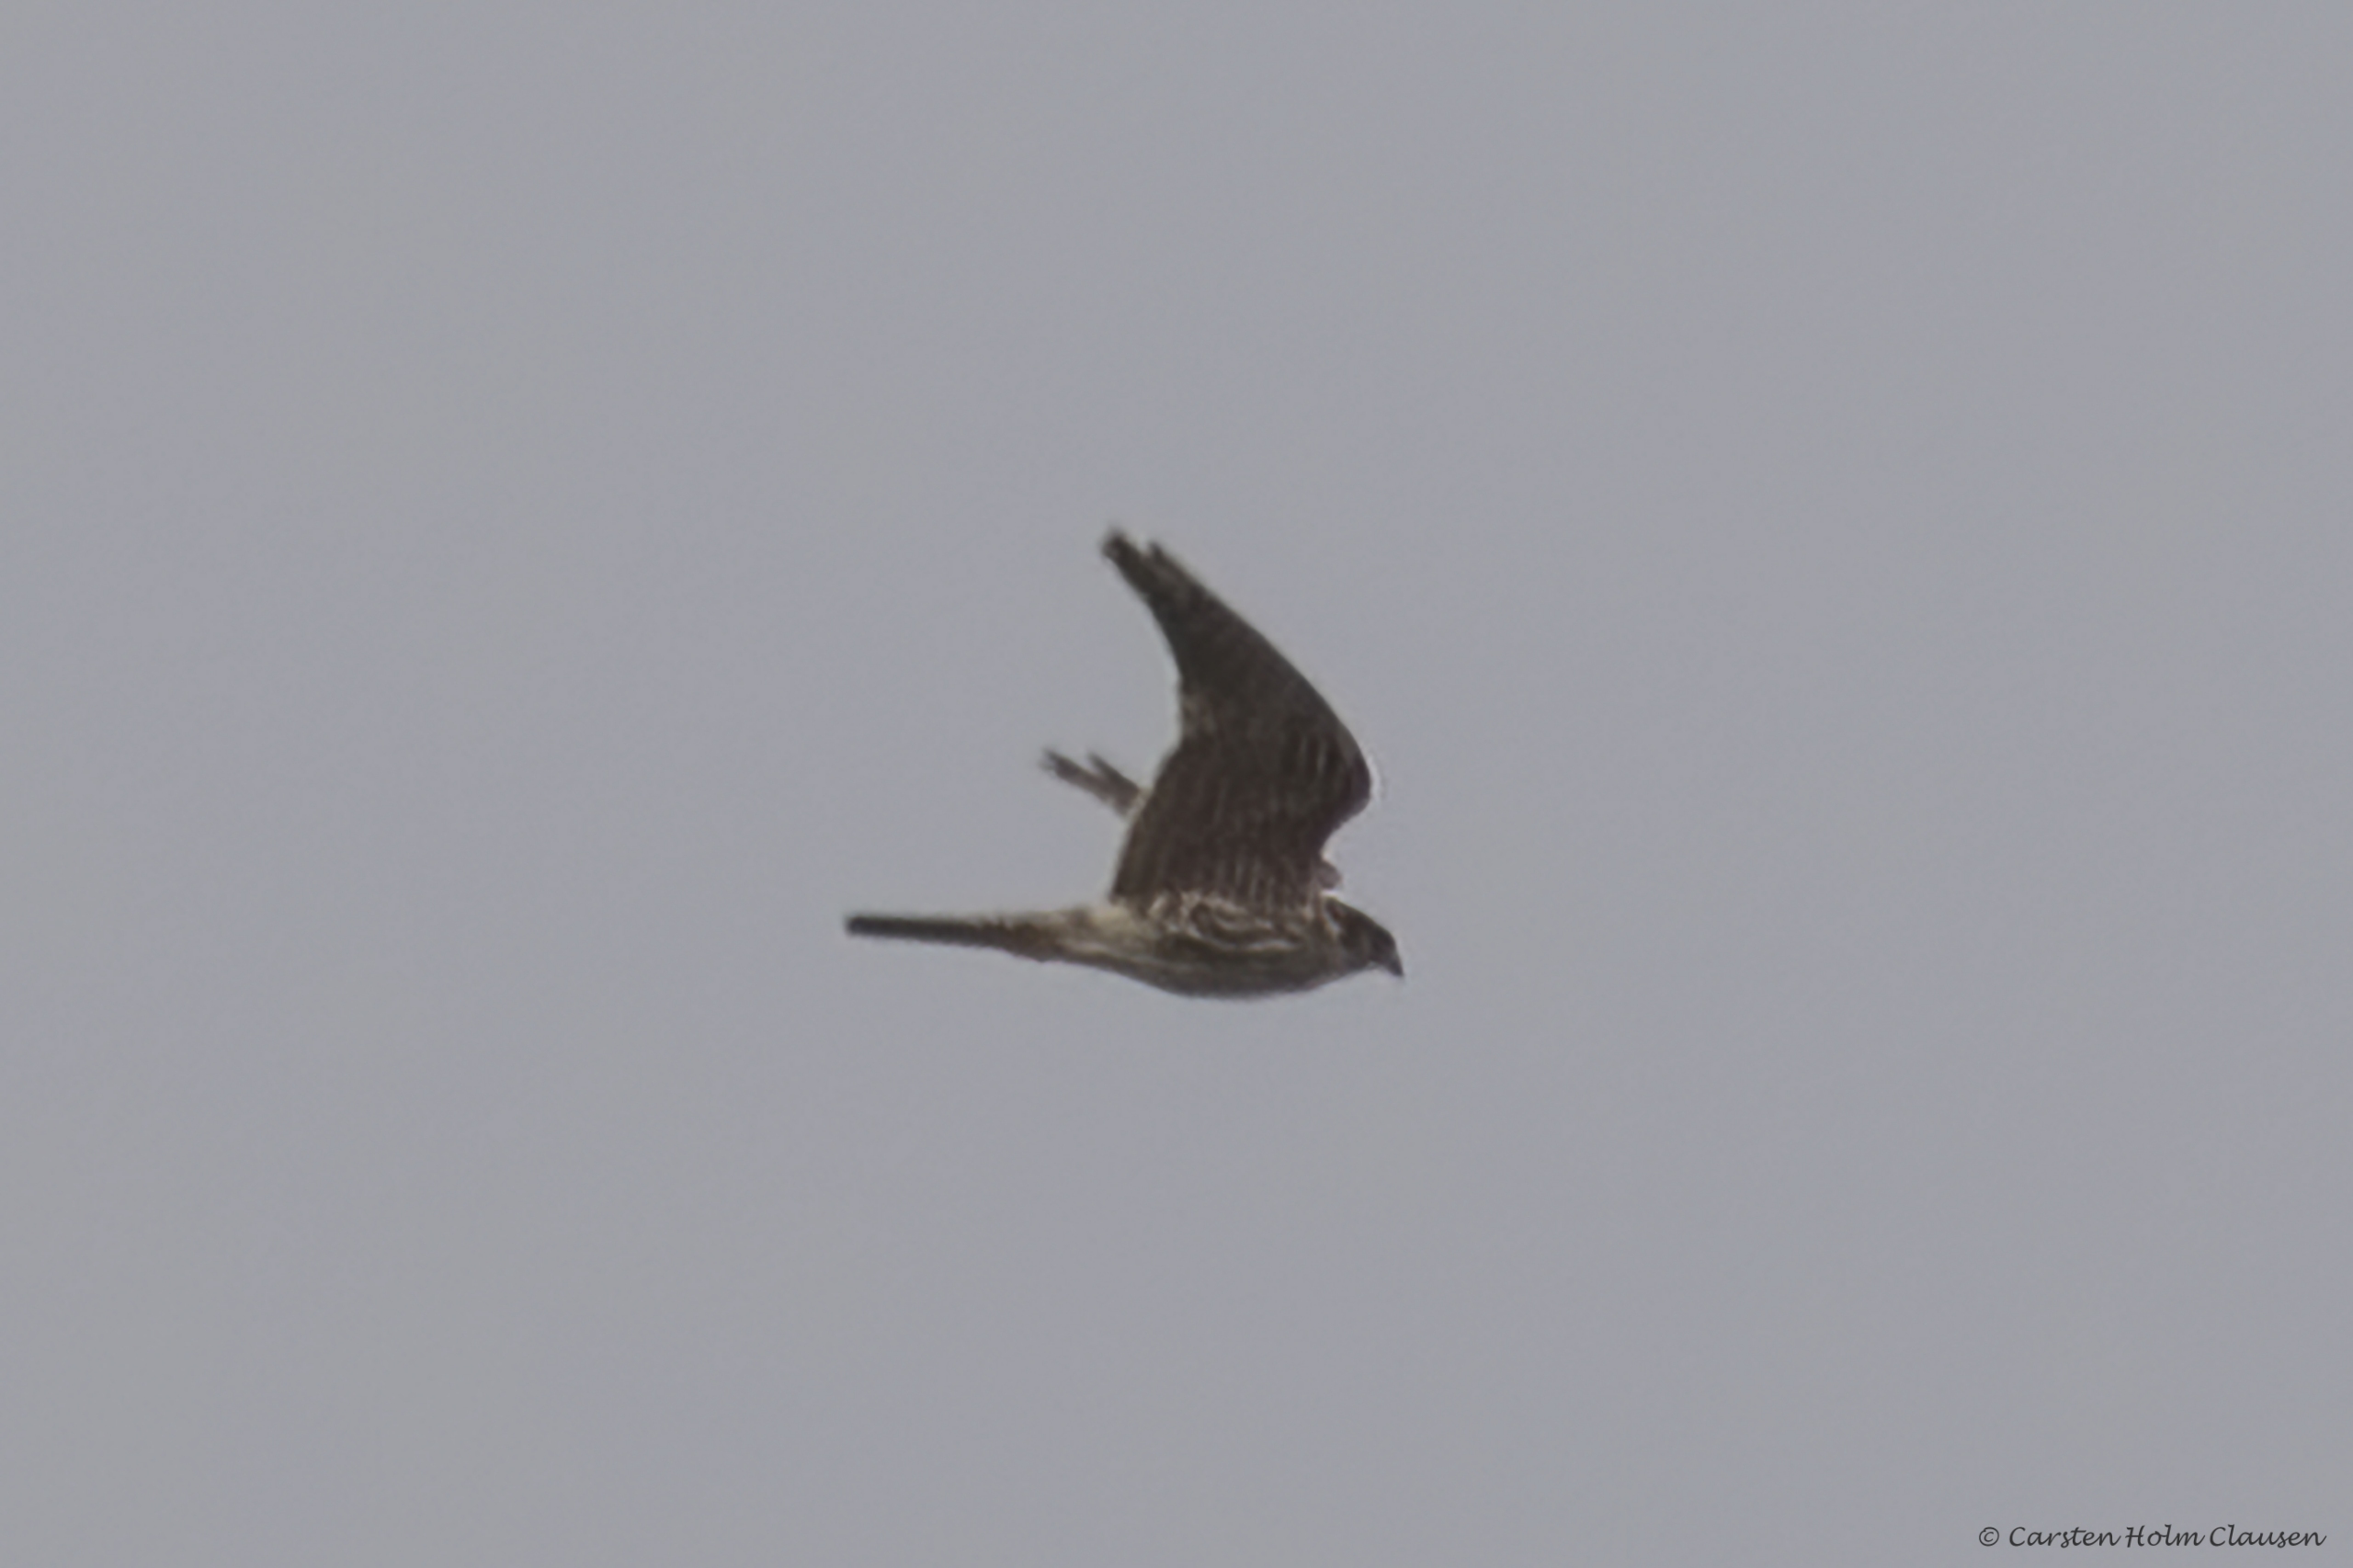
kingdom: Animalia
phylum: Chordata
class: Aves
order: Falconiformes
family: Falconidae
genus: Falco
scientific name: Falco columbarius
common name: Dværgfalk
